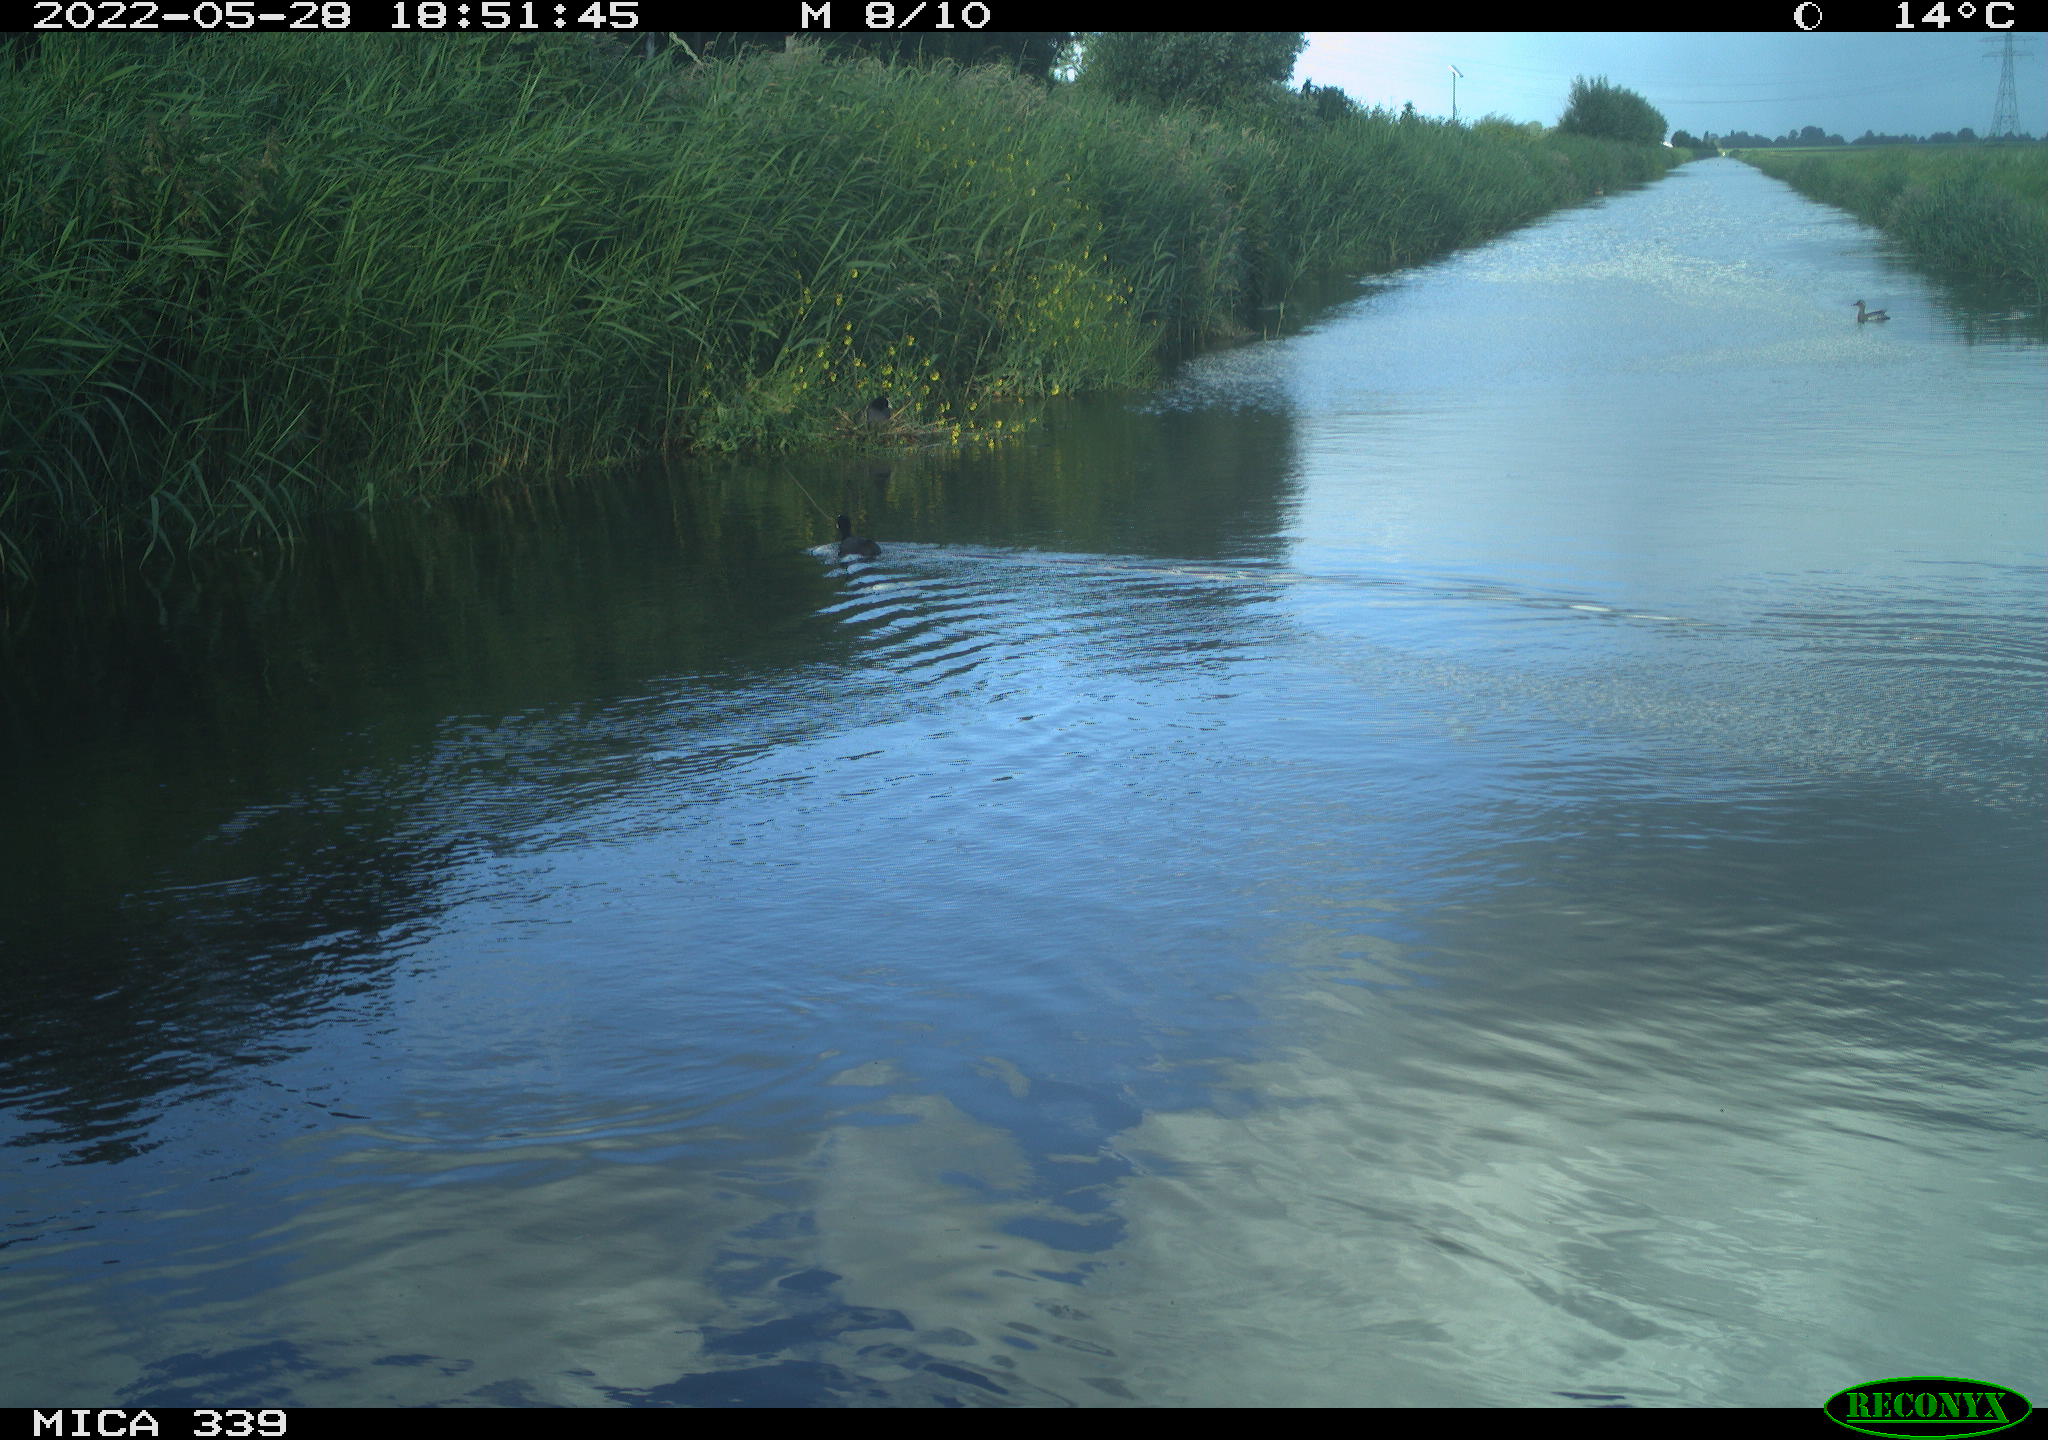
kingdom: Animalia
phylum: Chordata
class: Aves
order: Gruiformes
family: Rallidae
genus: Fulica
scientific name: Fulica atra
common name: Eurasian coot
